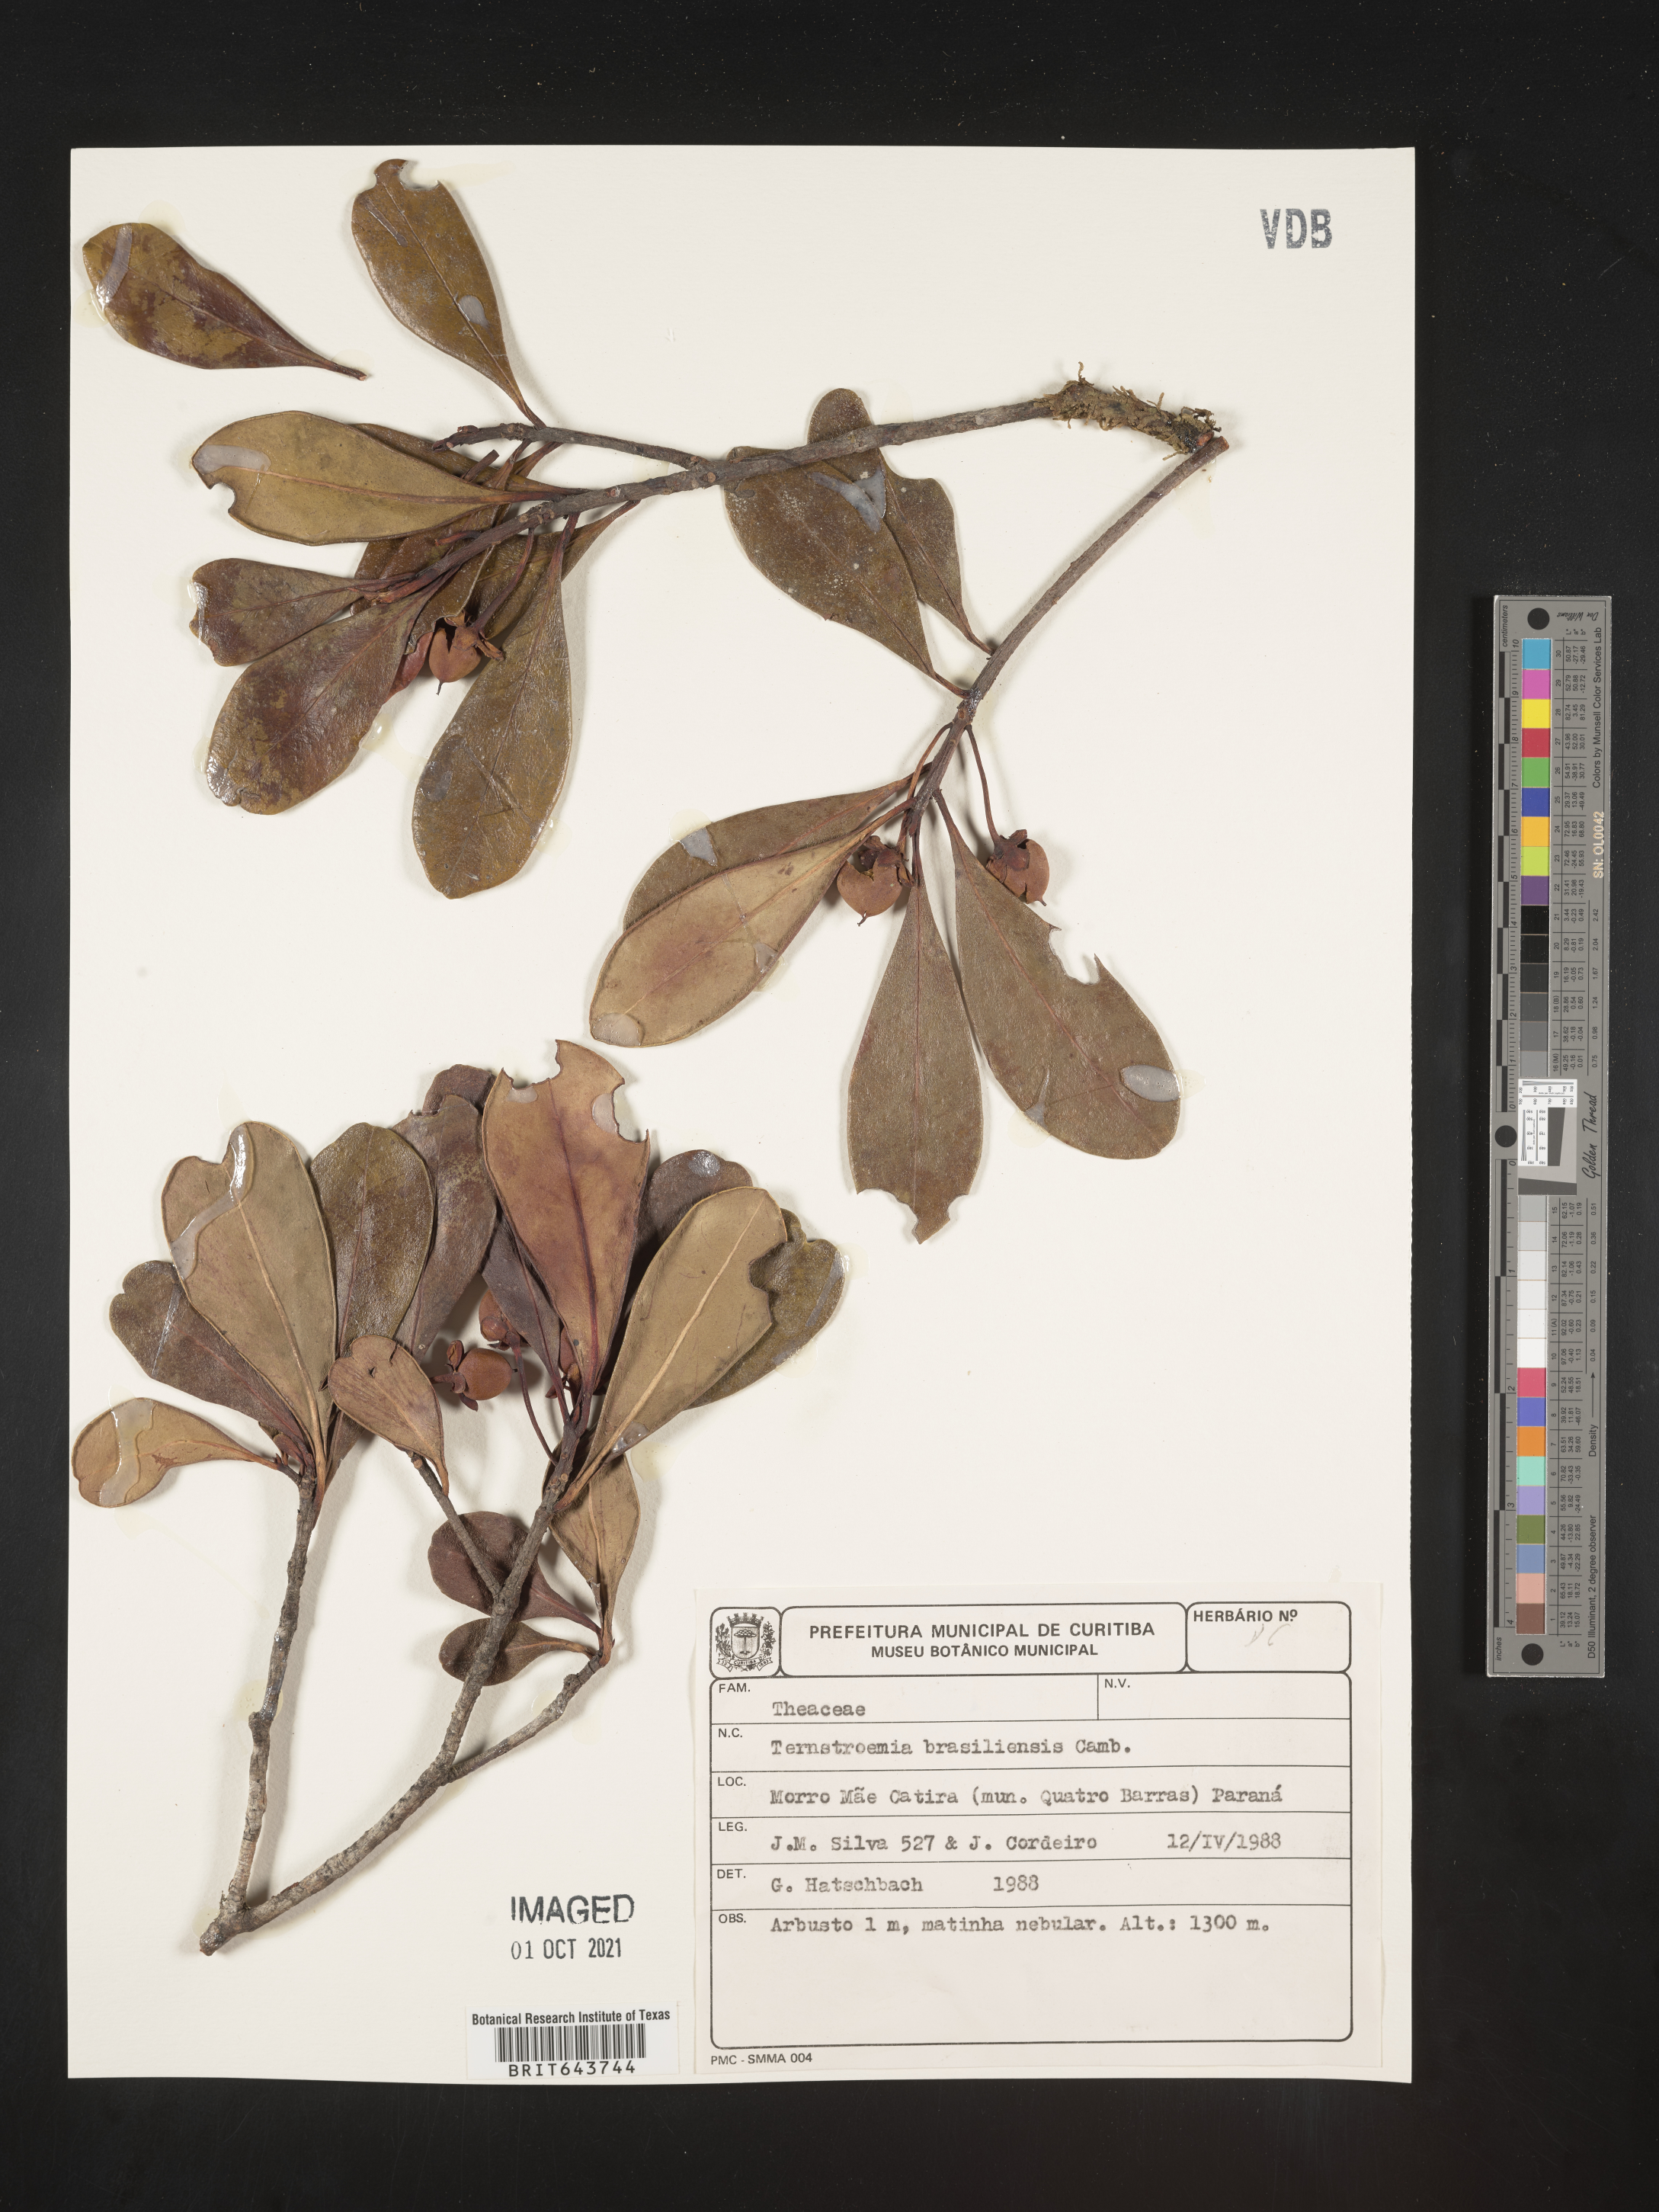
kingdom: Plantae
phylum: Tracheophyta
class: Magnoliopsida
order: Ericales
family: Pentaphylacaceae
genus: Ternstroemia
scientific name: Ternstroemia
